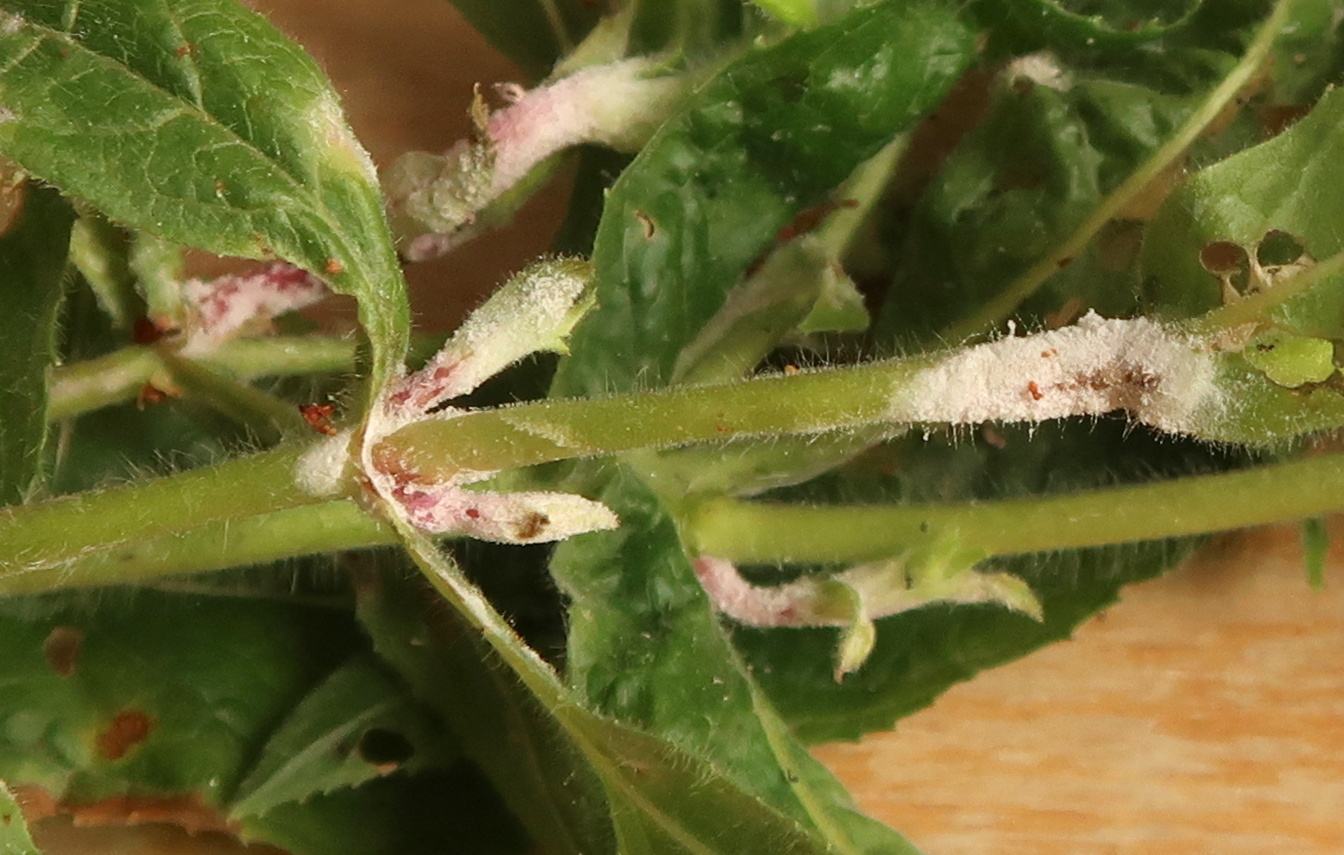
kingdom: Fungi
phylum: Ascomycota
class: Leotiomycetes
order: Helotiales
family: Erysiphaceae
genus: Podosphaera
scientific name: Podosphaera epilobii
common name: dueurt-meldug
